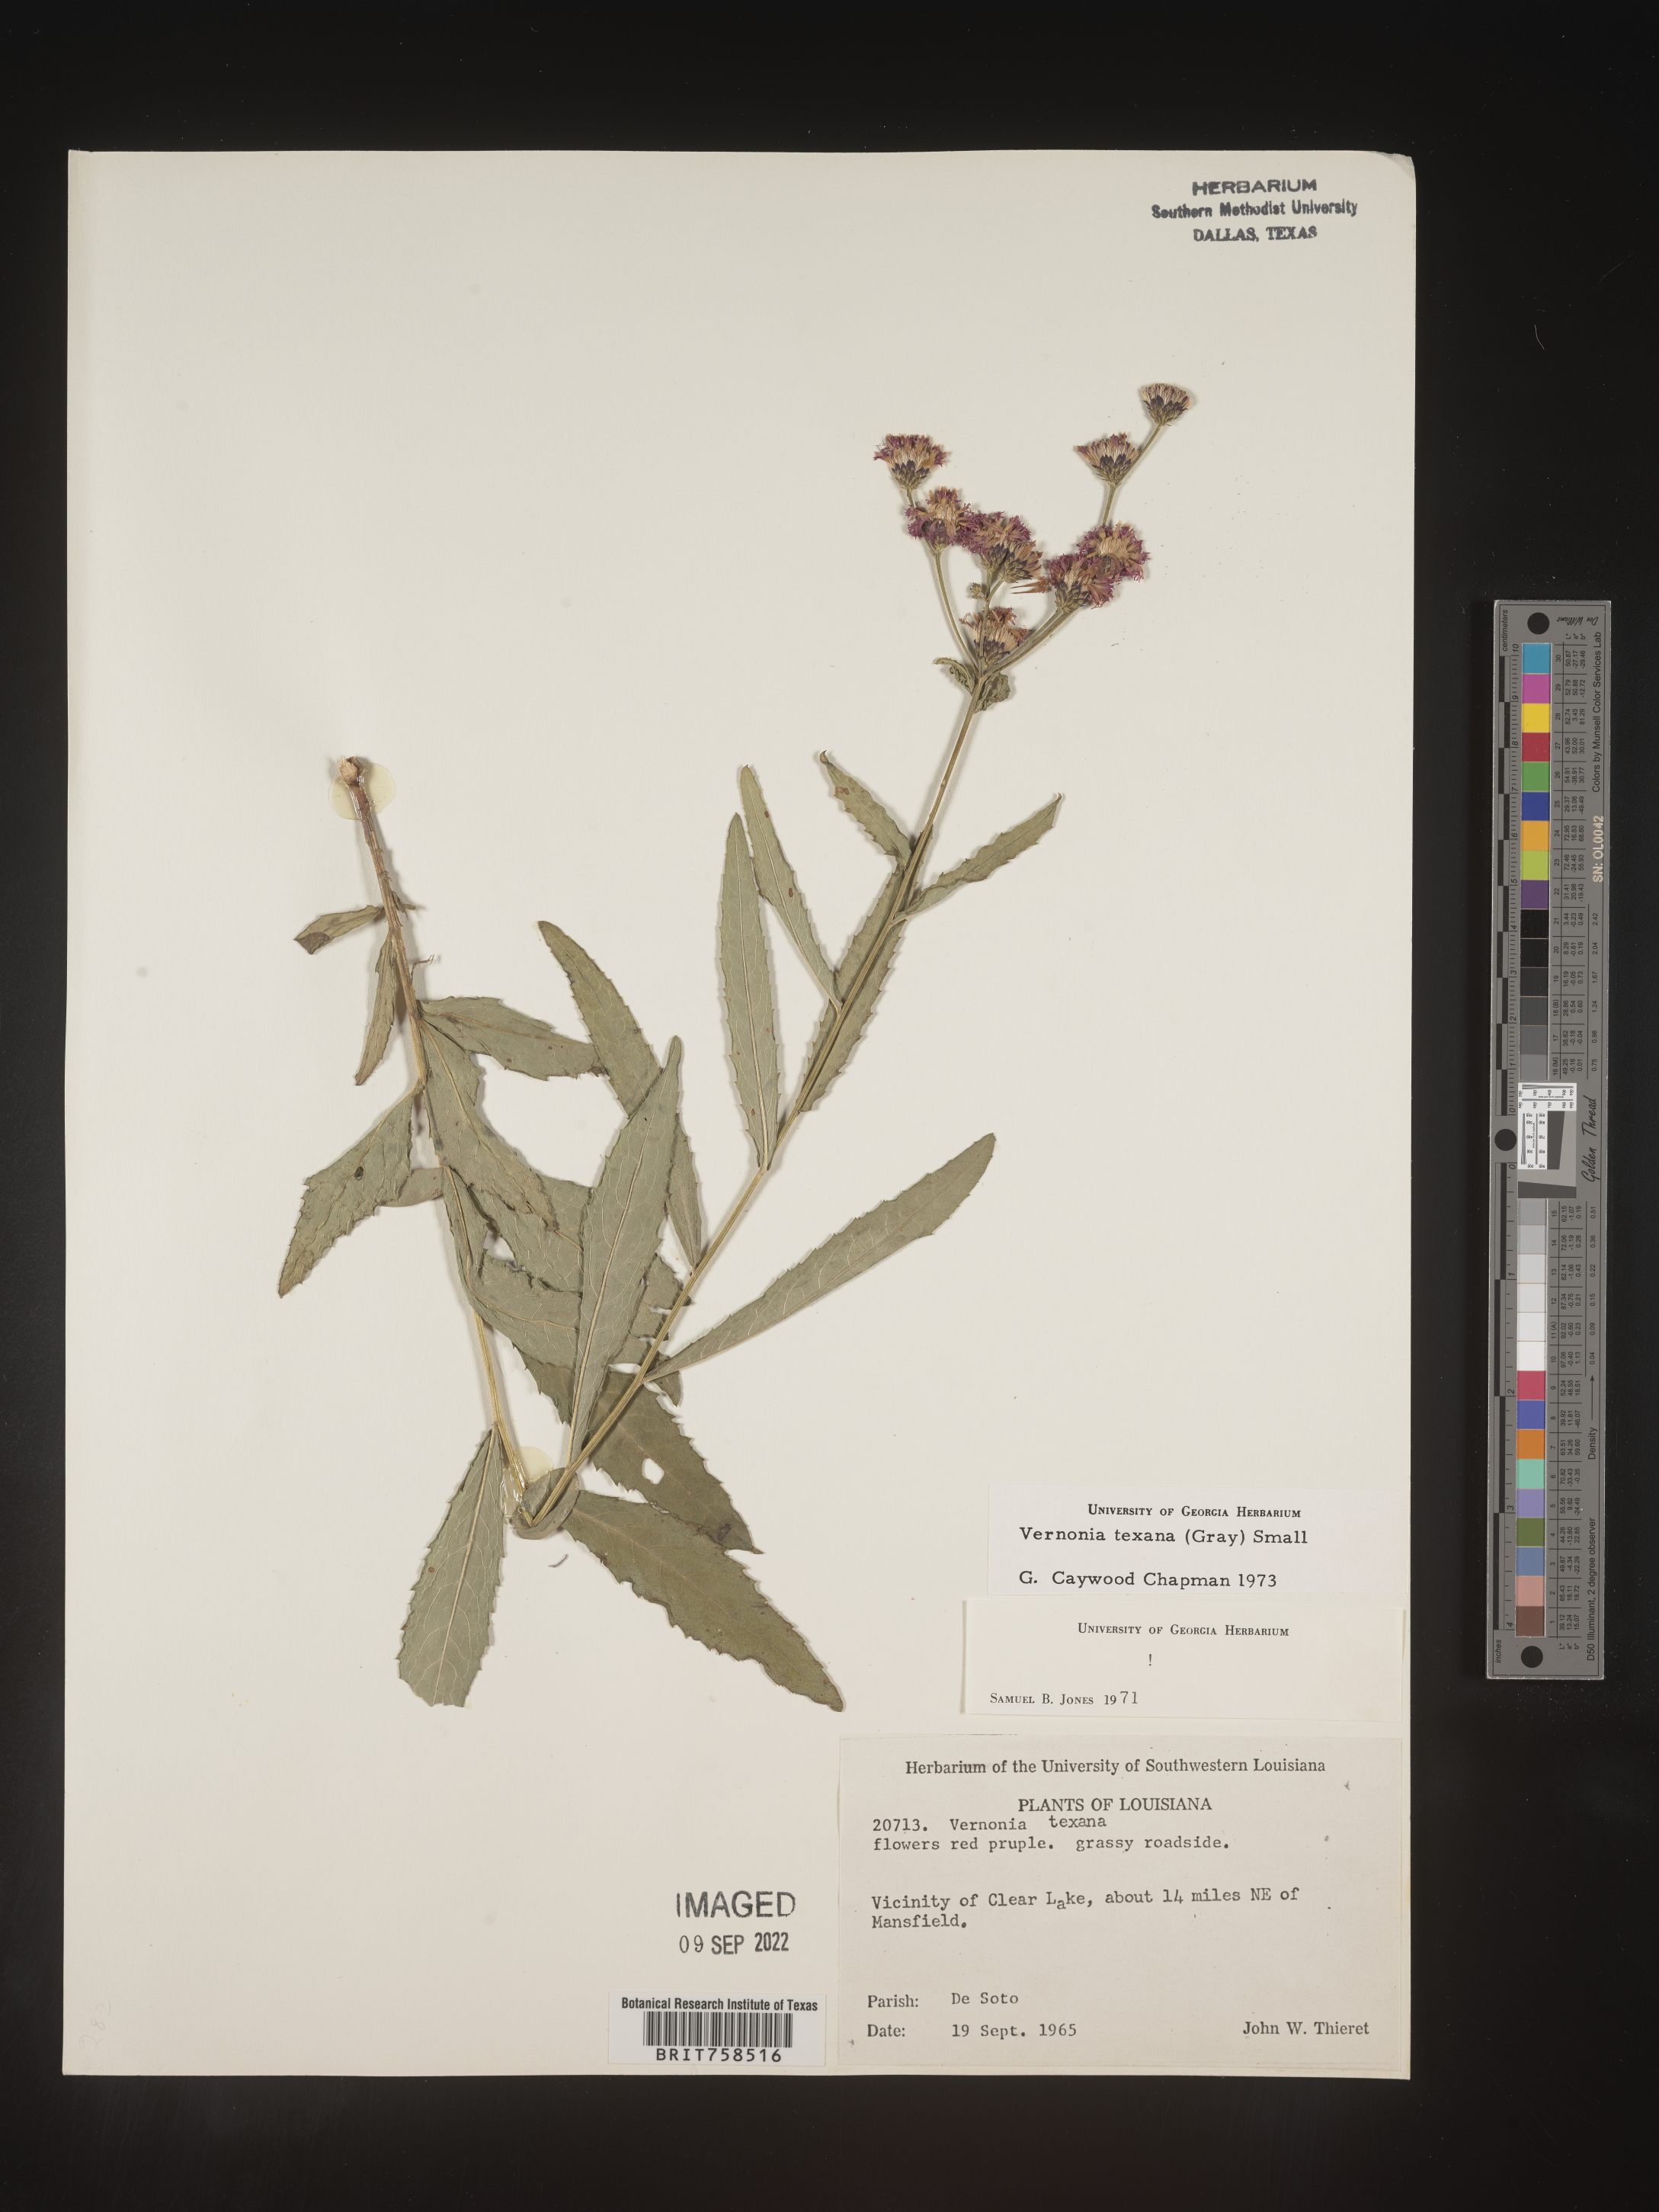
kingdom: Plantae
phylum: Tracheophyta
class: Magnoliopsida
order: Asterales
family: Asteraceae
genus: Vernonia
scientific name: Vernonia texana
